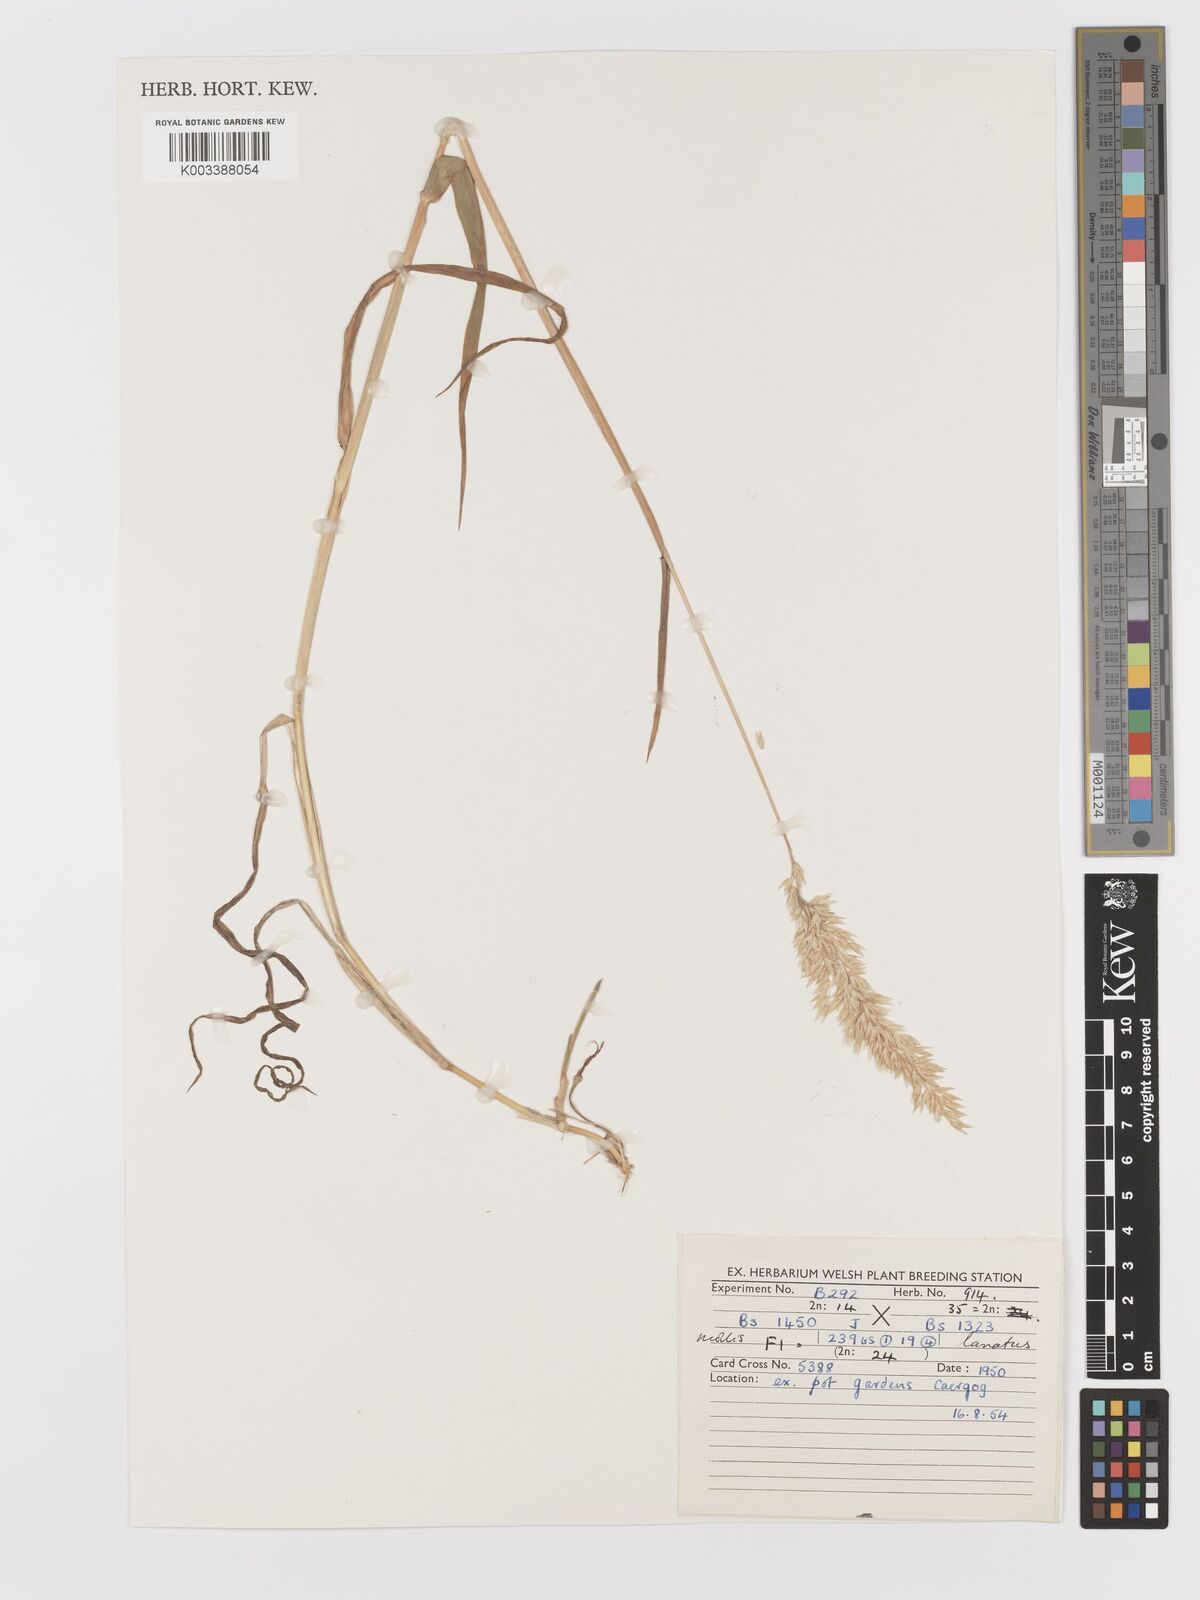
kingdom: Plantae
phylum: Tracheophyta
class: Liliopsida
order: Poales
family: Poaceae
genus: Holcus
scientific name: Holcus lanatus
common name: Yorkshire-fog
